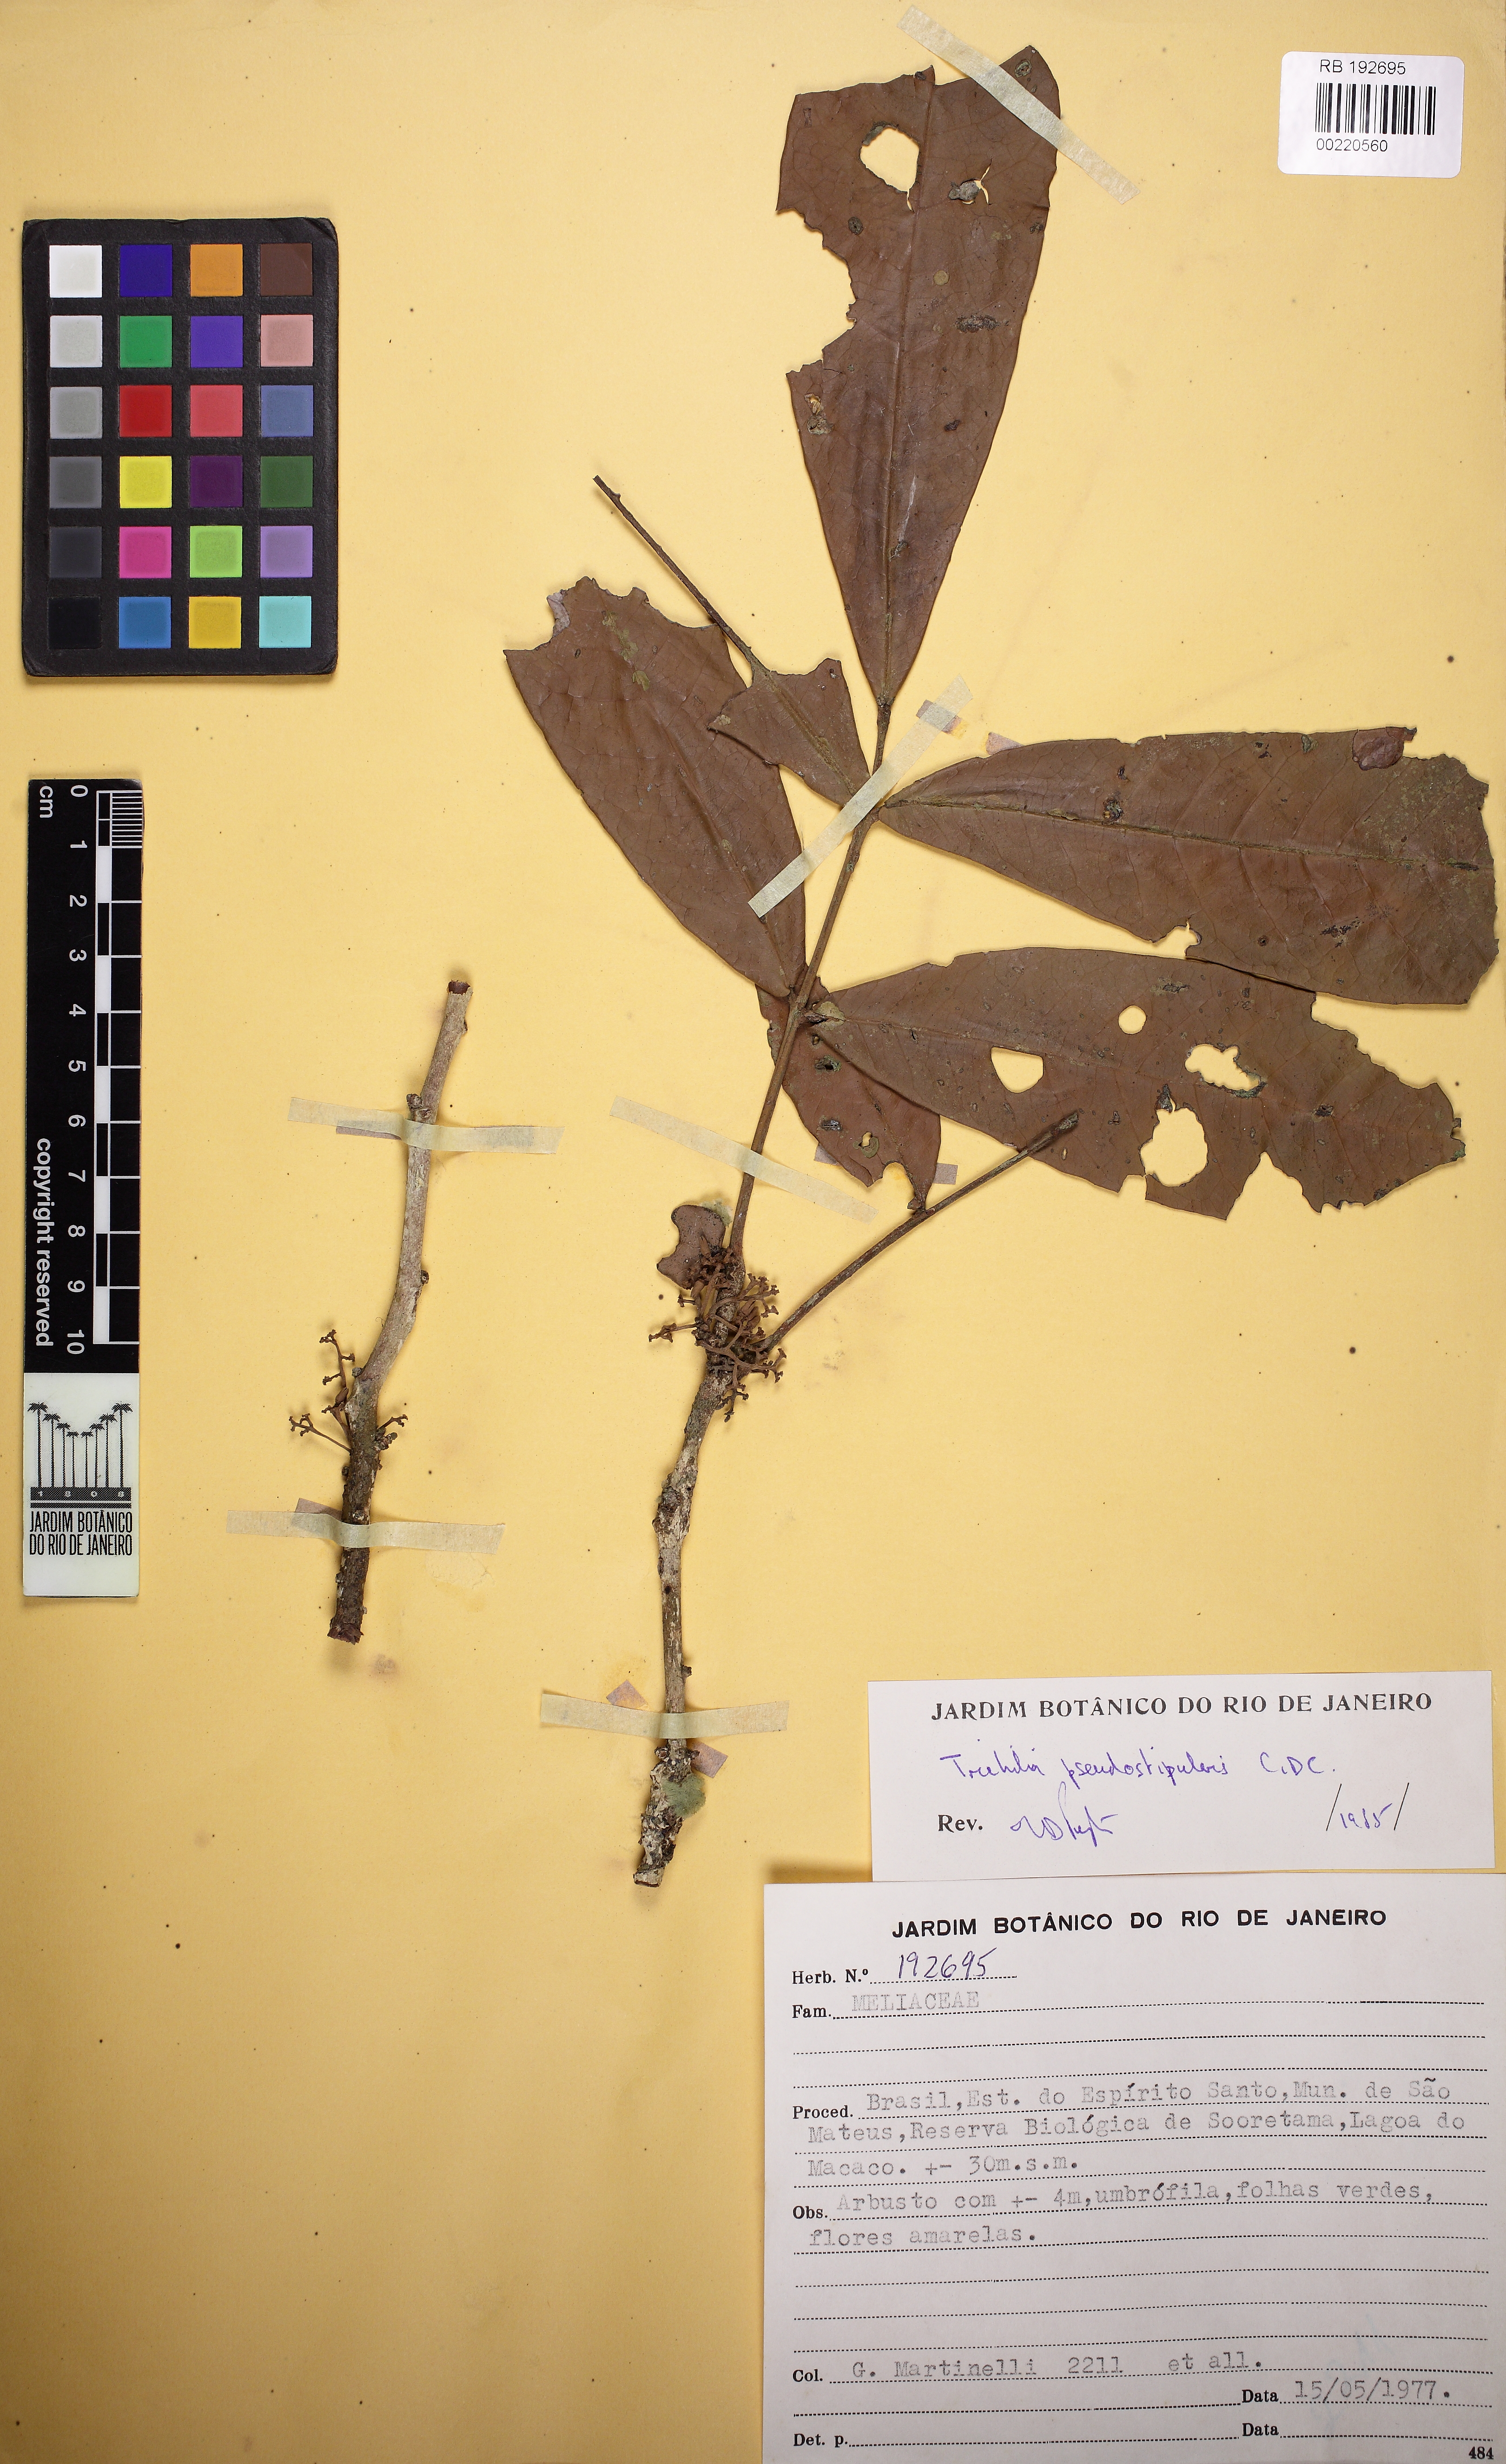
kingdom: Plantae
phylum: Tracheophyta
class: Magnoliopsida
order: Sapindales
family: Meliaceae
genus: Trichilia
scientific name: Trichilia pseudostipularis
